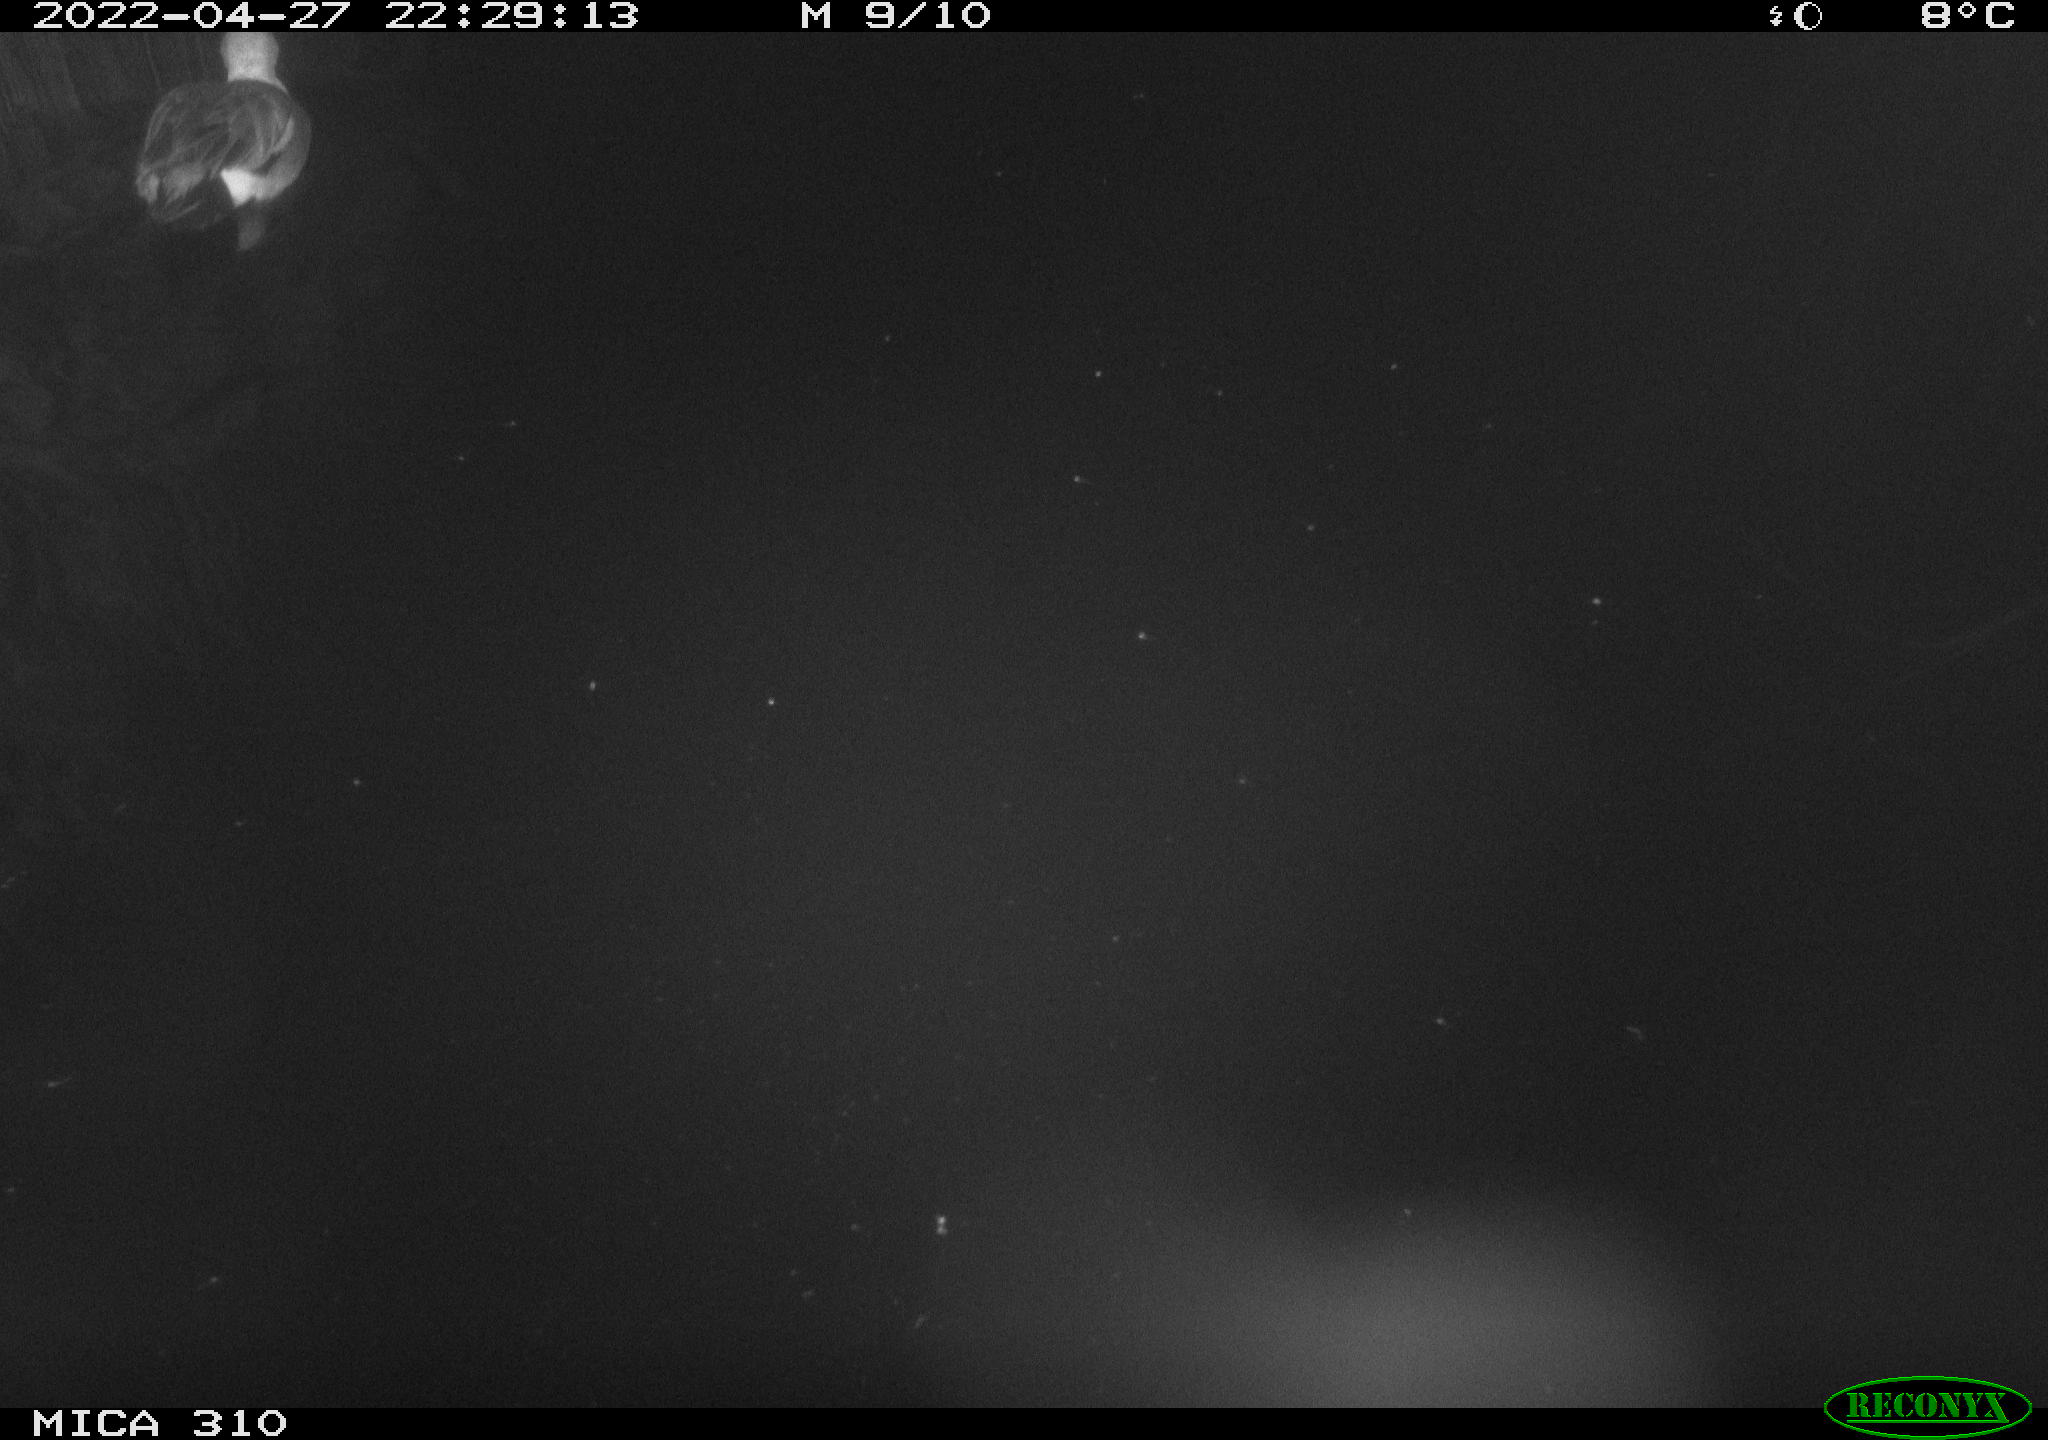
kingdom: Animalia
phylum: Chordata
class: Aves
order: Anseriformes
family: Anatidae
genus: Anas
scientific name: Anas platyrhynchos
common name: Mallard
